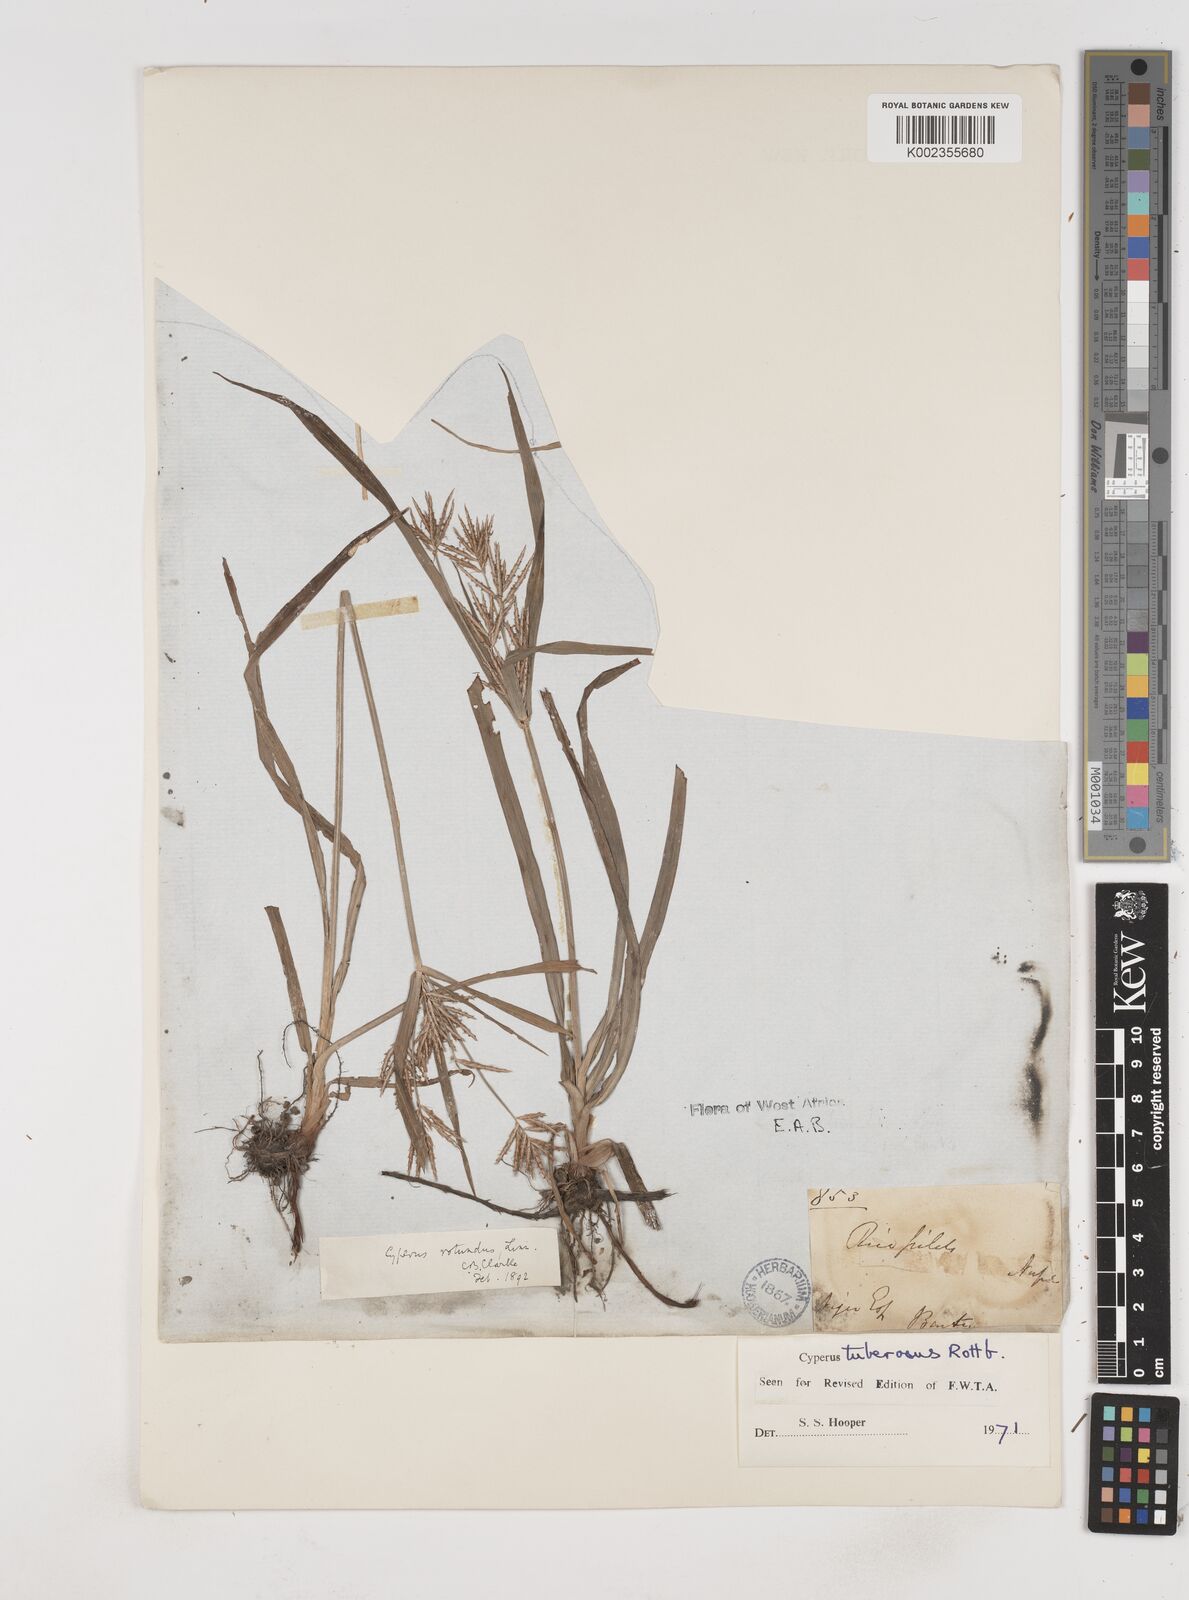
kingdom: Plantae
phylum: Tracheophyta
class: Liliopsida
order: Poales
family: Cyperaceae
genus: Cyperus
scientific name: Cyperus tuberosus
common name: Nut grass
